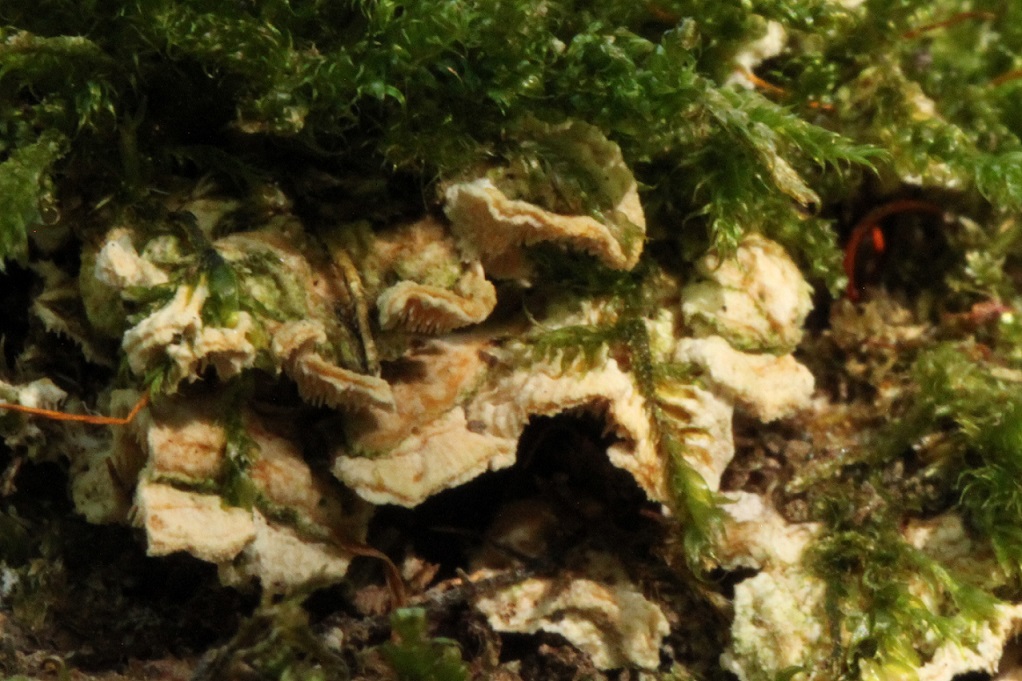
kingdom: Fungi
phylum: Basidiomycota
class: Agaricomycetes
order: Polyporales
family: Steccherinaceae
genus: Steccherinum
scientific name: Steccherinum ochraceum
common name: almindelig skønpig
